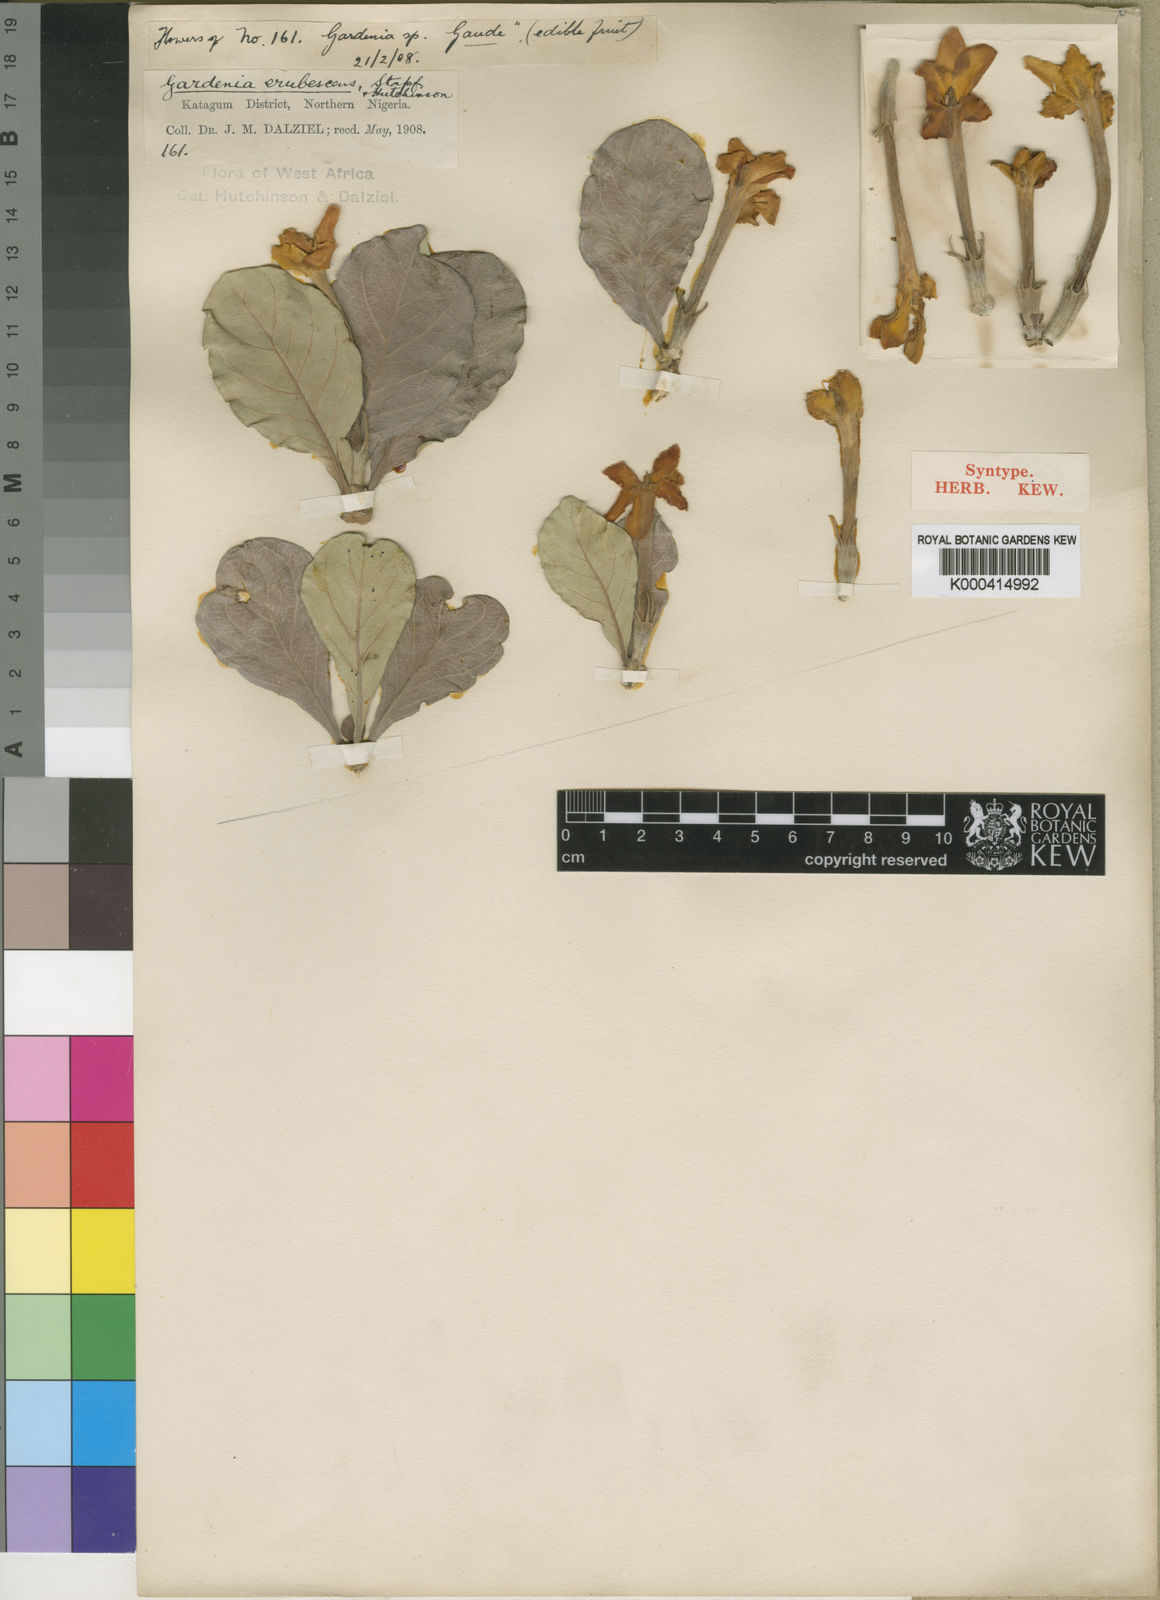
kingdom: Plantae
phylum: Tracheophyta
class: Magnoliopsida
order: Gentianales
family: Rubiaceae
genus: Gardenia
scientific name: Gardenia erubescens
